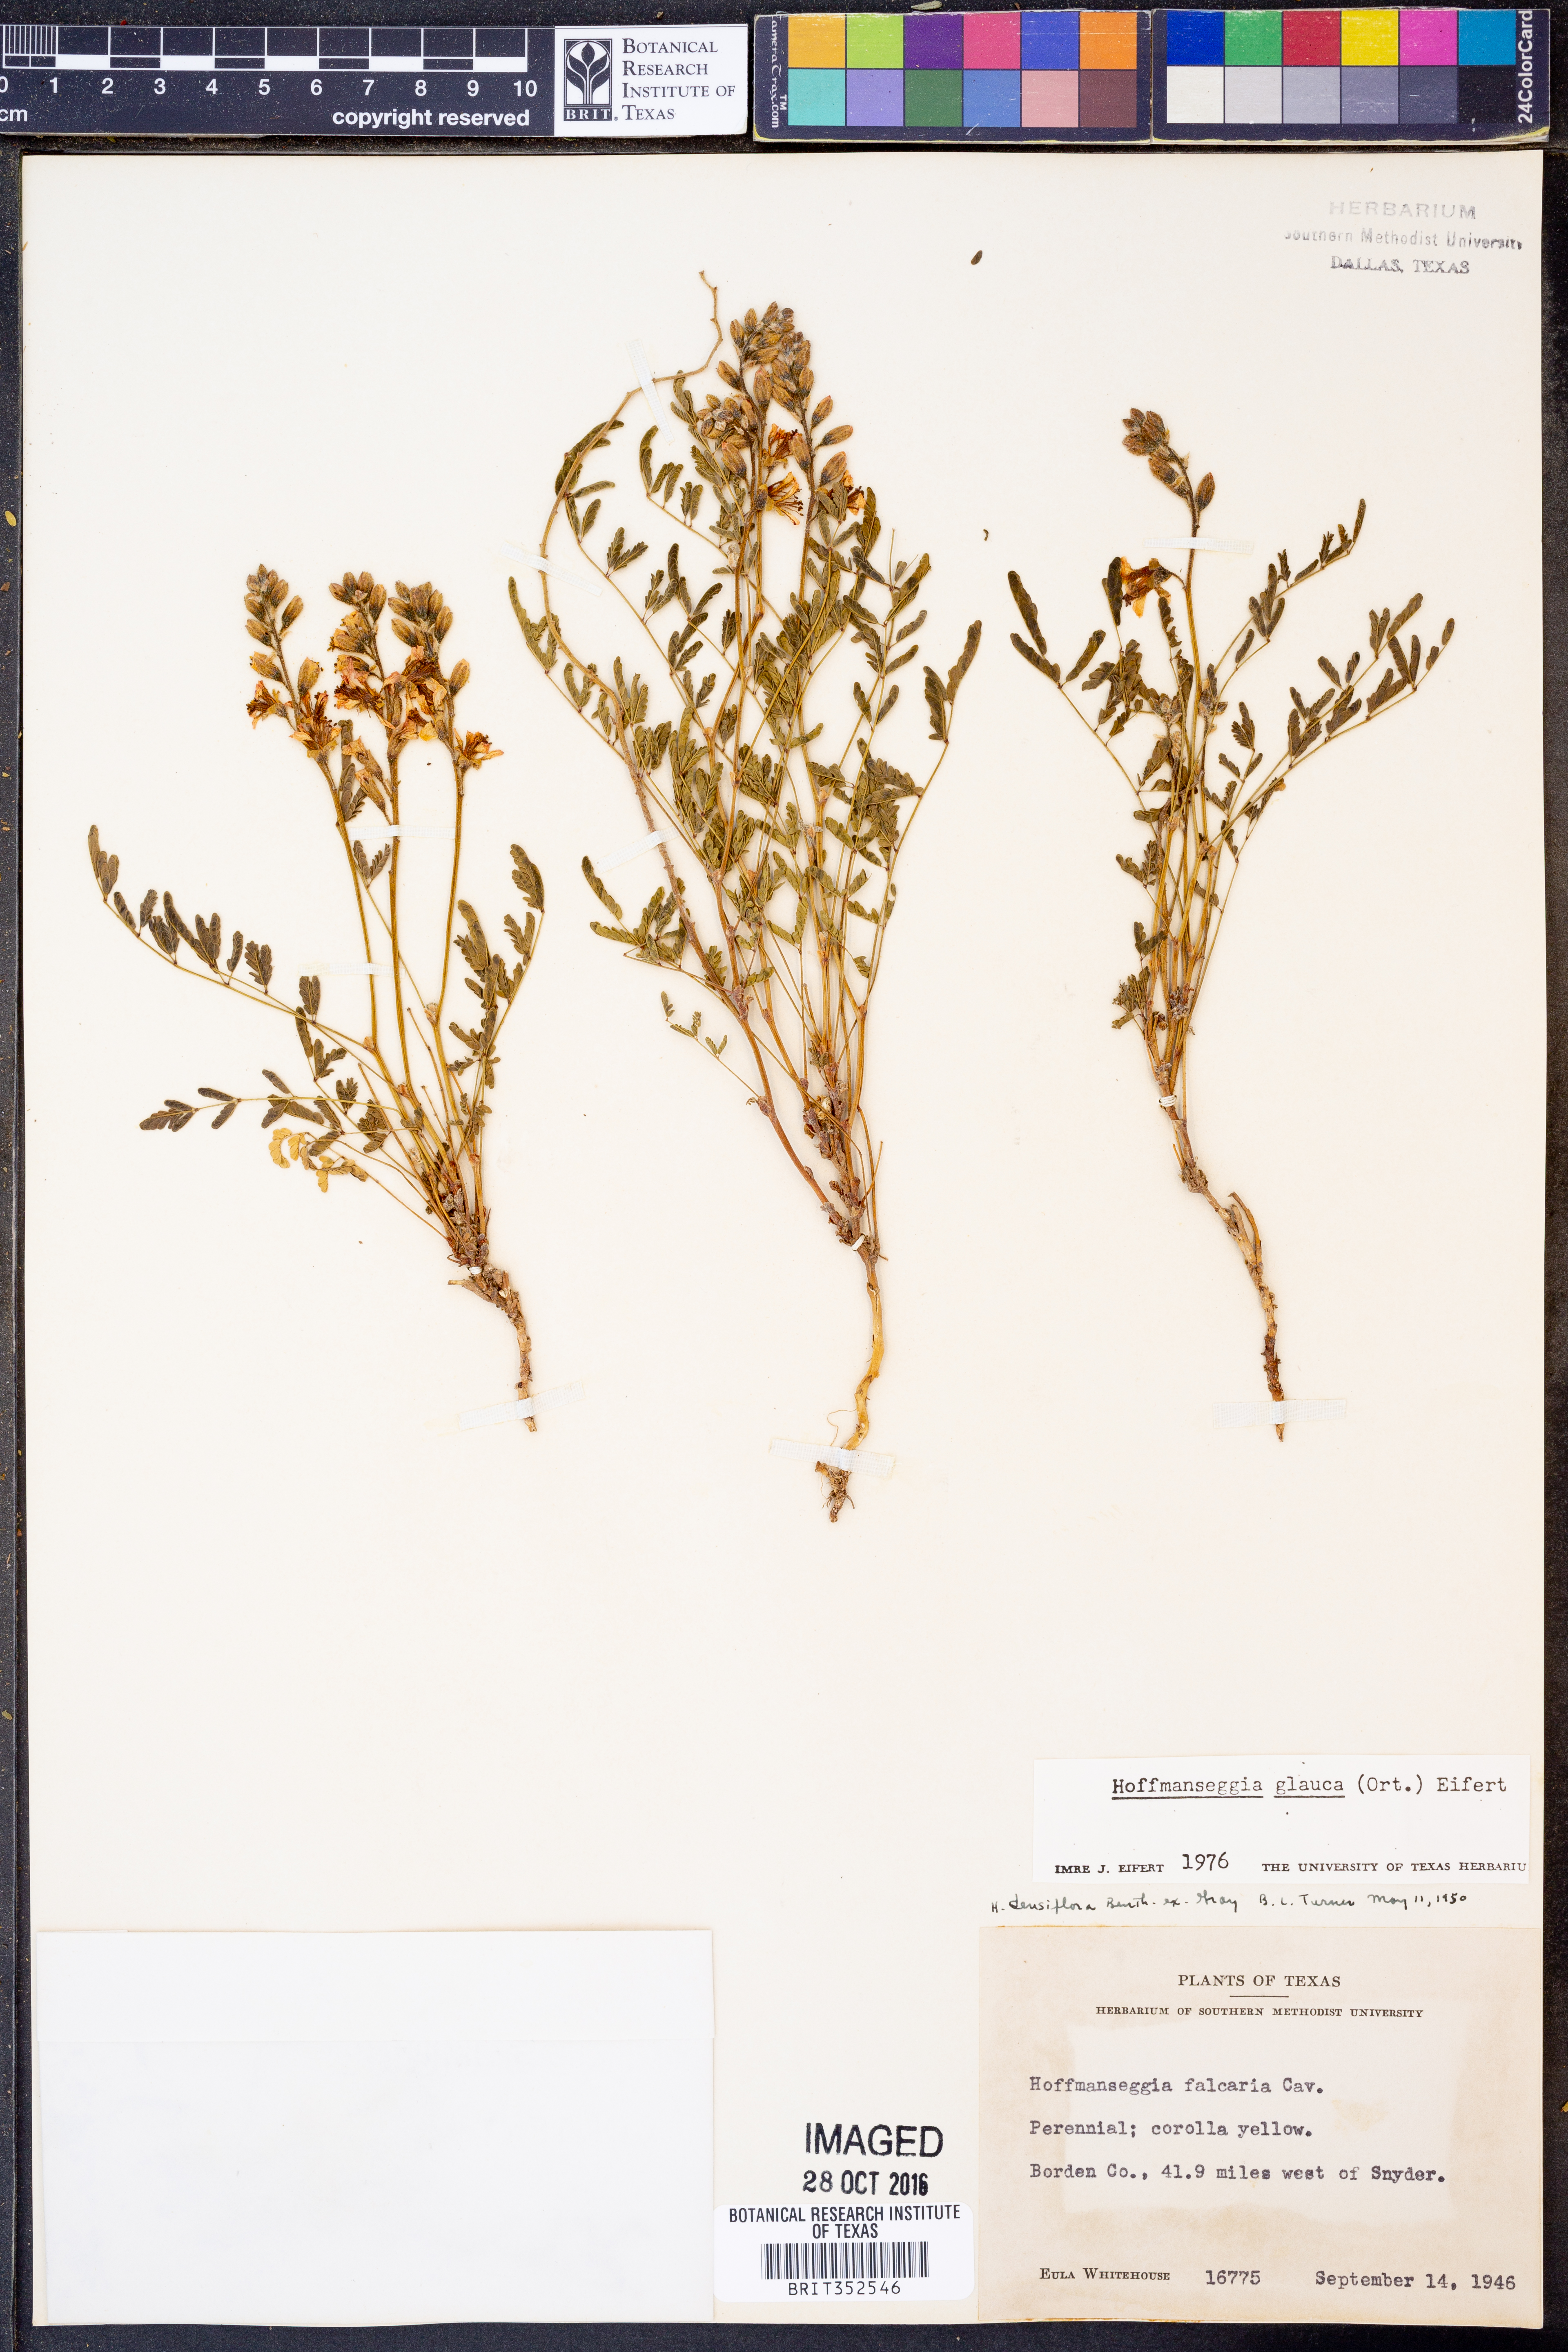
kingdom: Plantae
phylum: Tracheophyta
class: Magnoliopsida
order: Fabales
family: Fabaceae
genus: Hoffmannseggia
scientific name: Hoffmannseggia glauca
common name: Pignut
